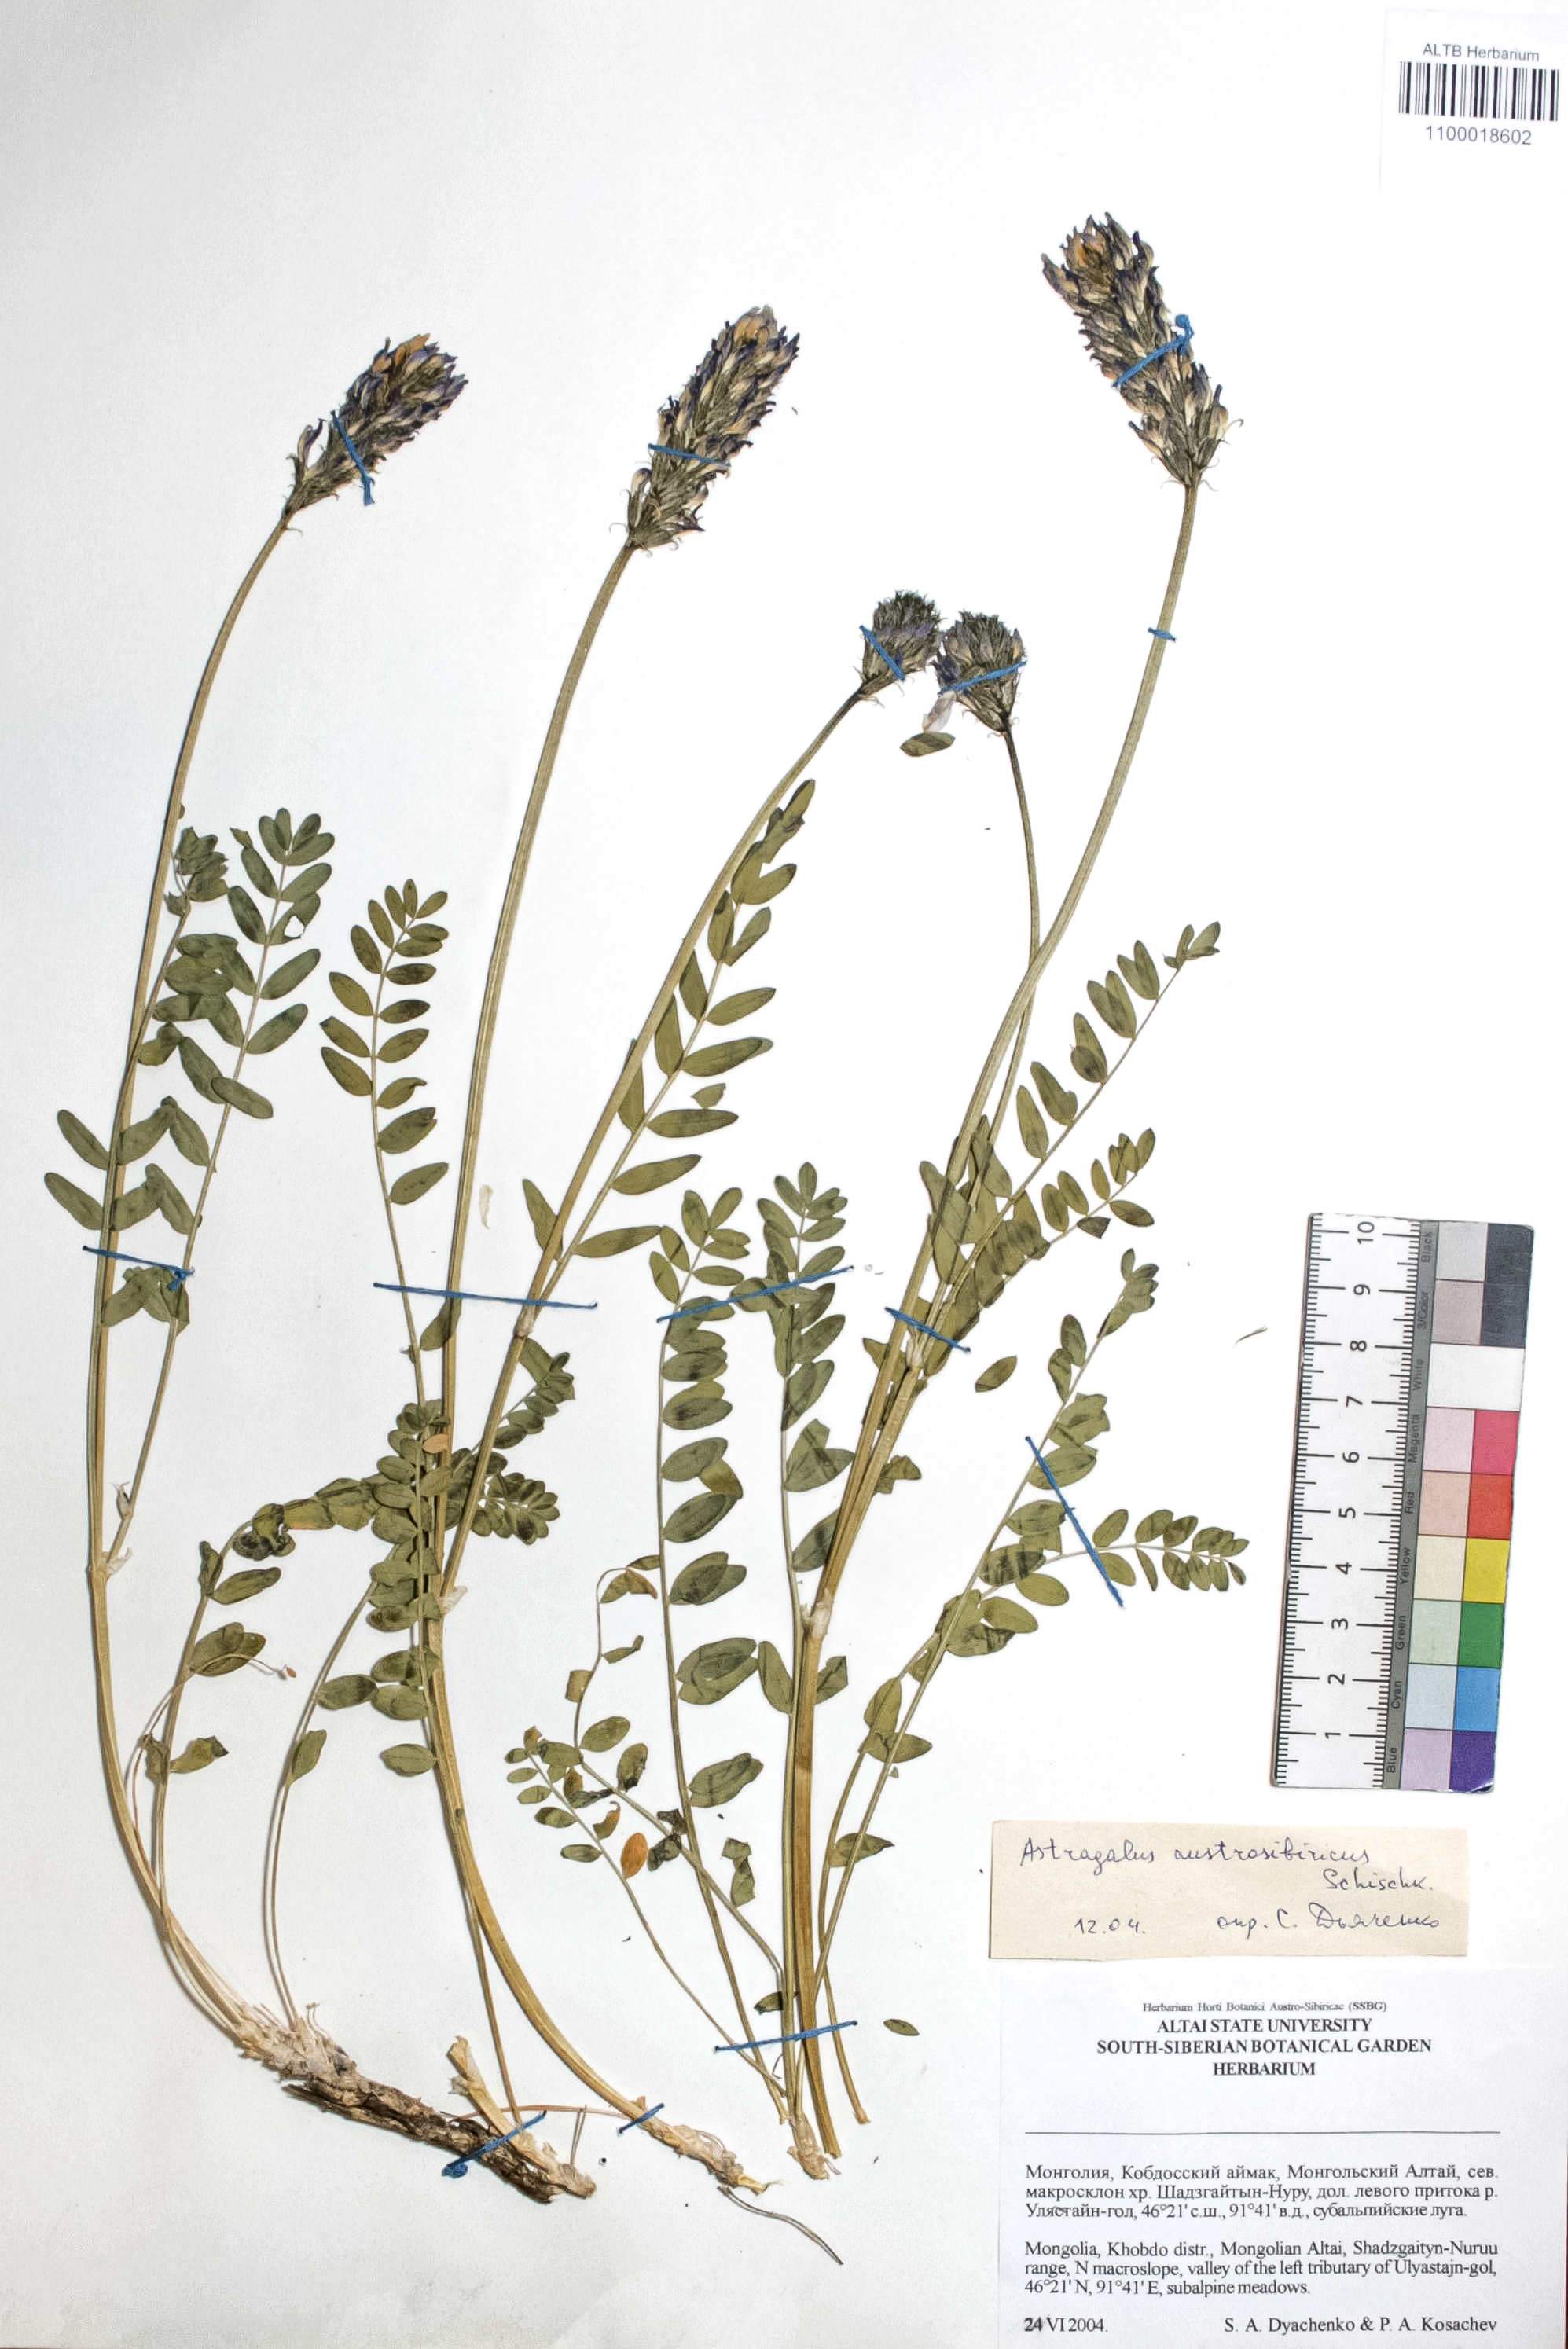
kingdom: Plantae
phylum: Tracheophyta
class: Magnoliopsida
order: Fabales
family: Fabaceae
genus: Astragalus
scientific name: Astragalus laxmannii
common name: Laxmann's milk-vetch
